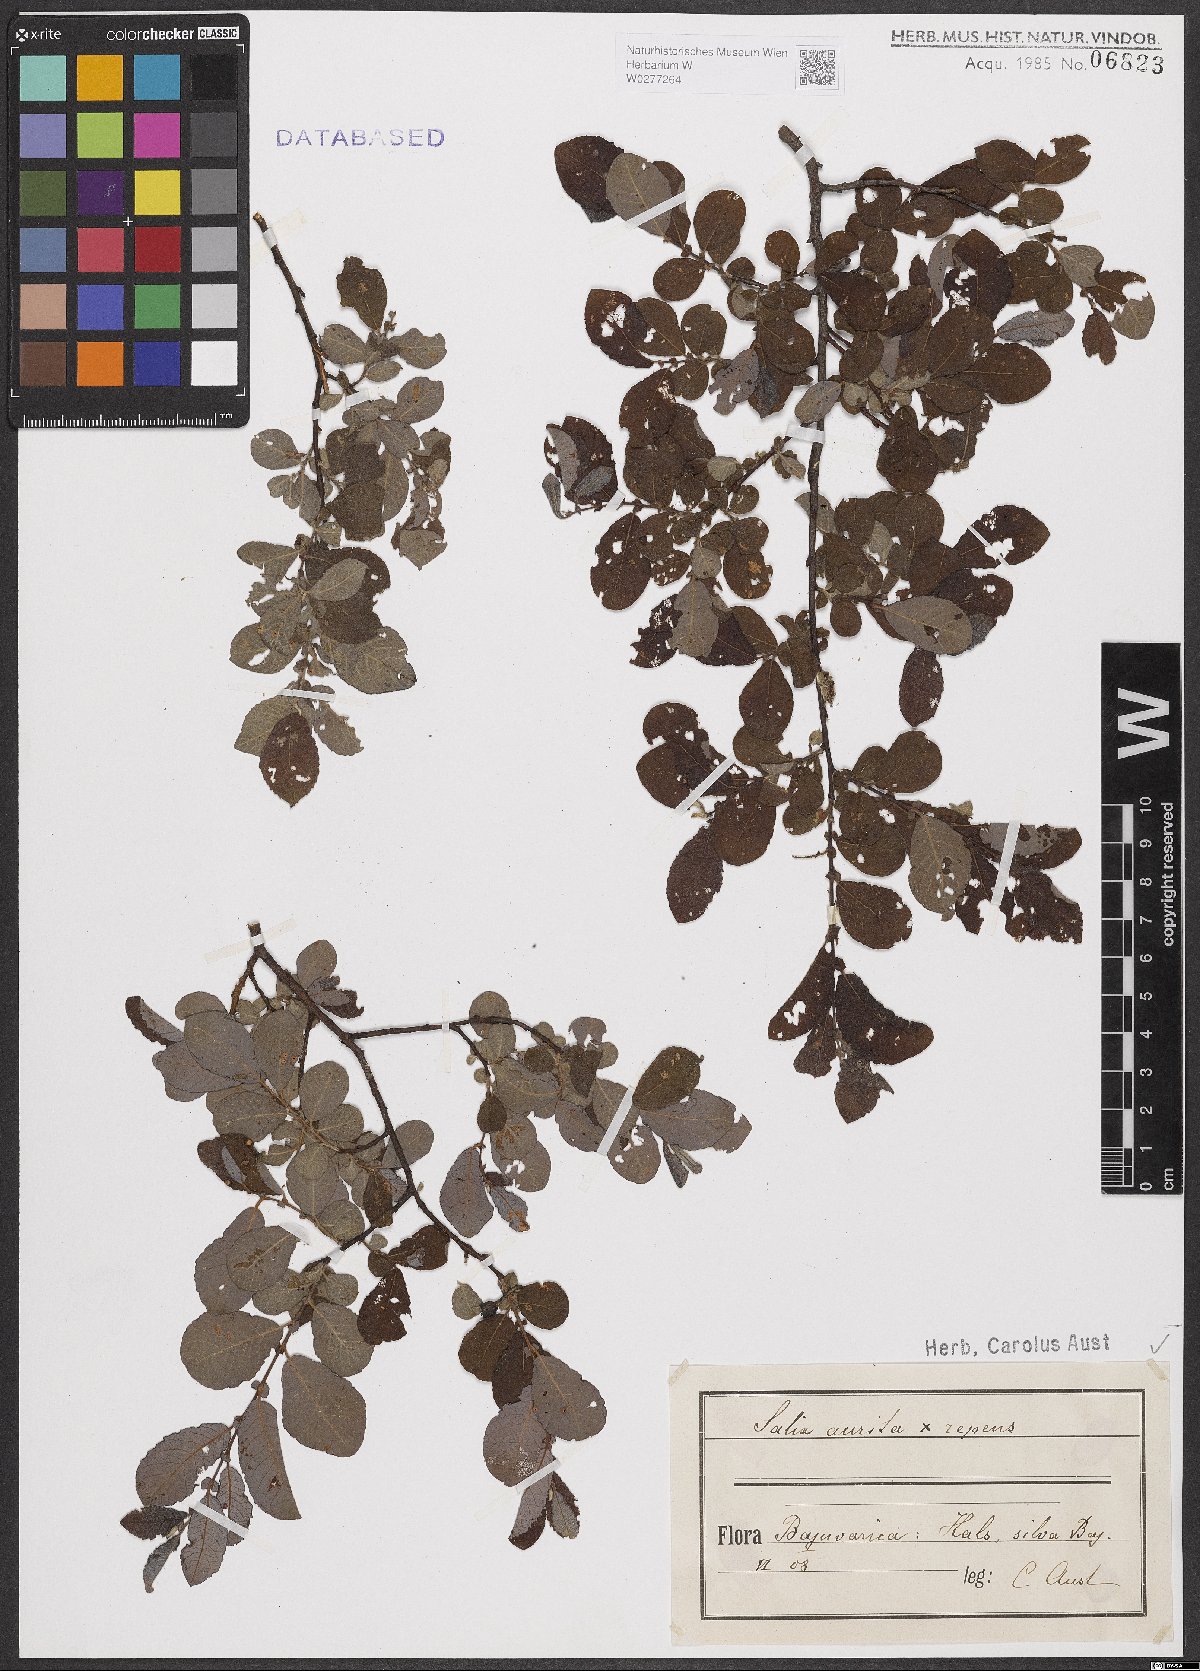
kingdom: Plantae
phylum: Tracheophyta
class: Magnoliopsida
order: Malpighiales
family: Salicaceae
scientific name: Salicaceae
